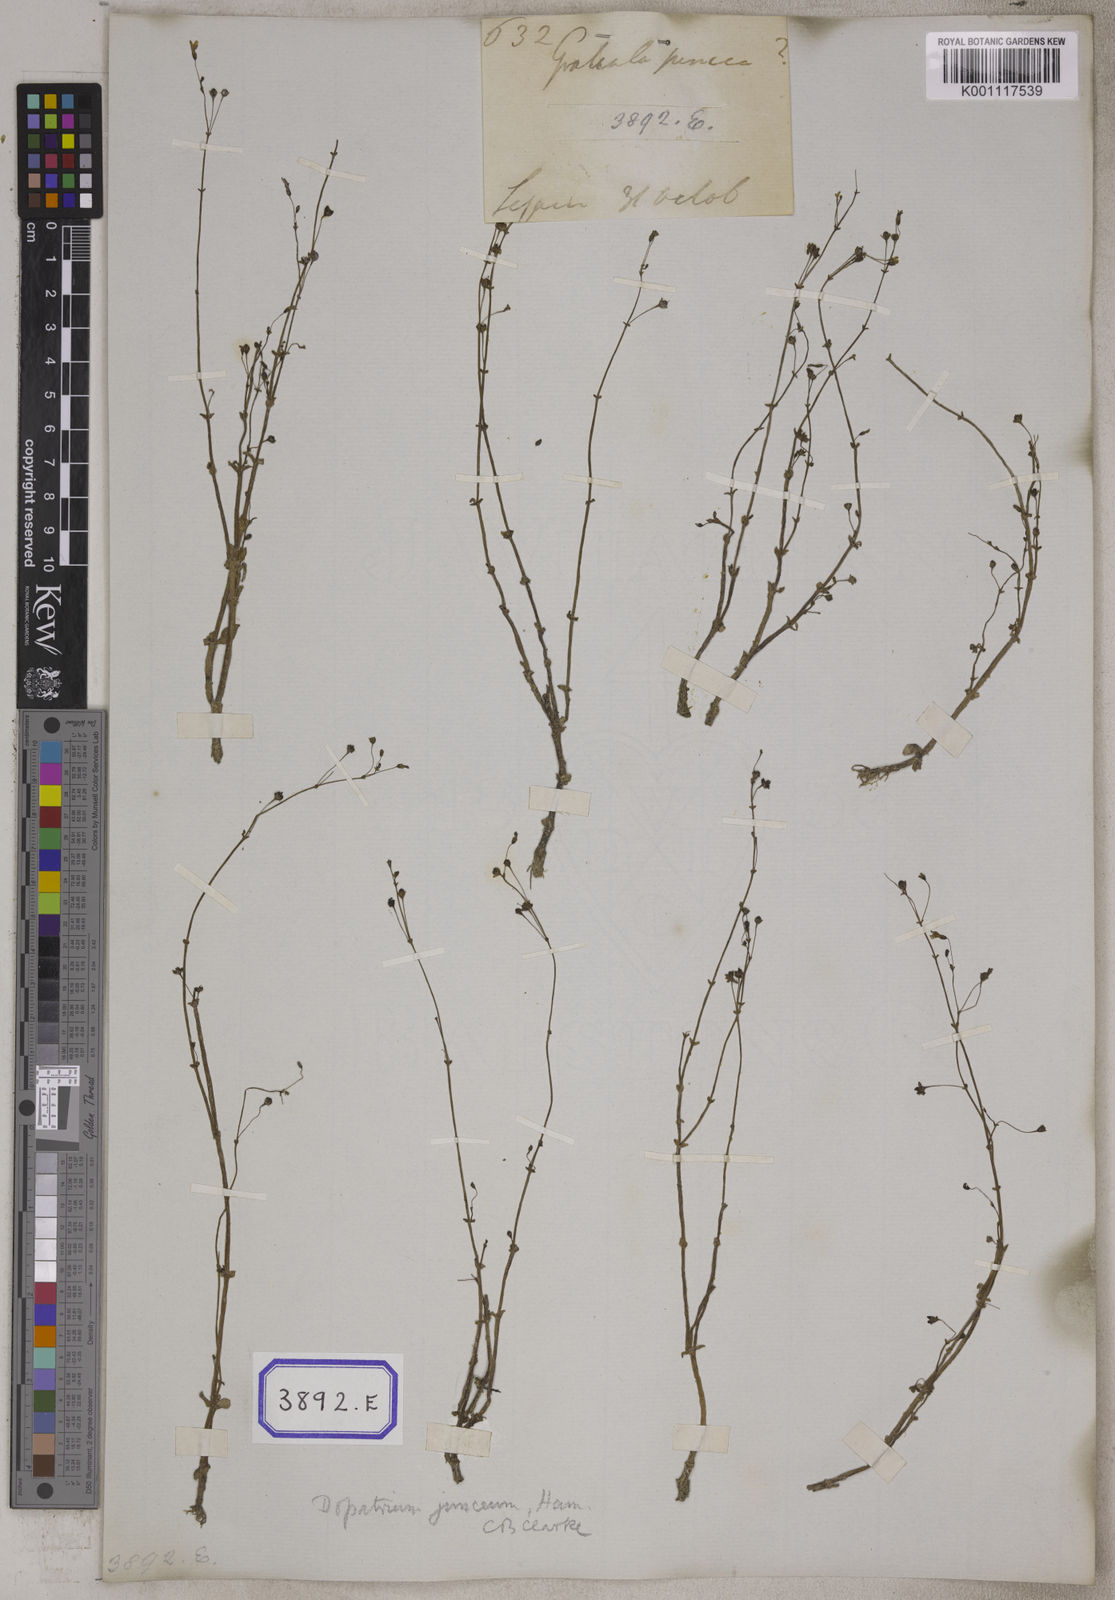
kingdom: Plantae
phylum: Tracheophyta
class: Magnoliopsida
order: Lamiales
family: Plantaginaceae
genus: Dopatrium
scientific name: Dopatrium junceum
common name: Horsefly's eye
